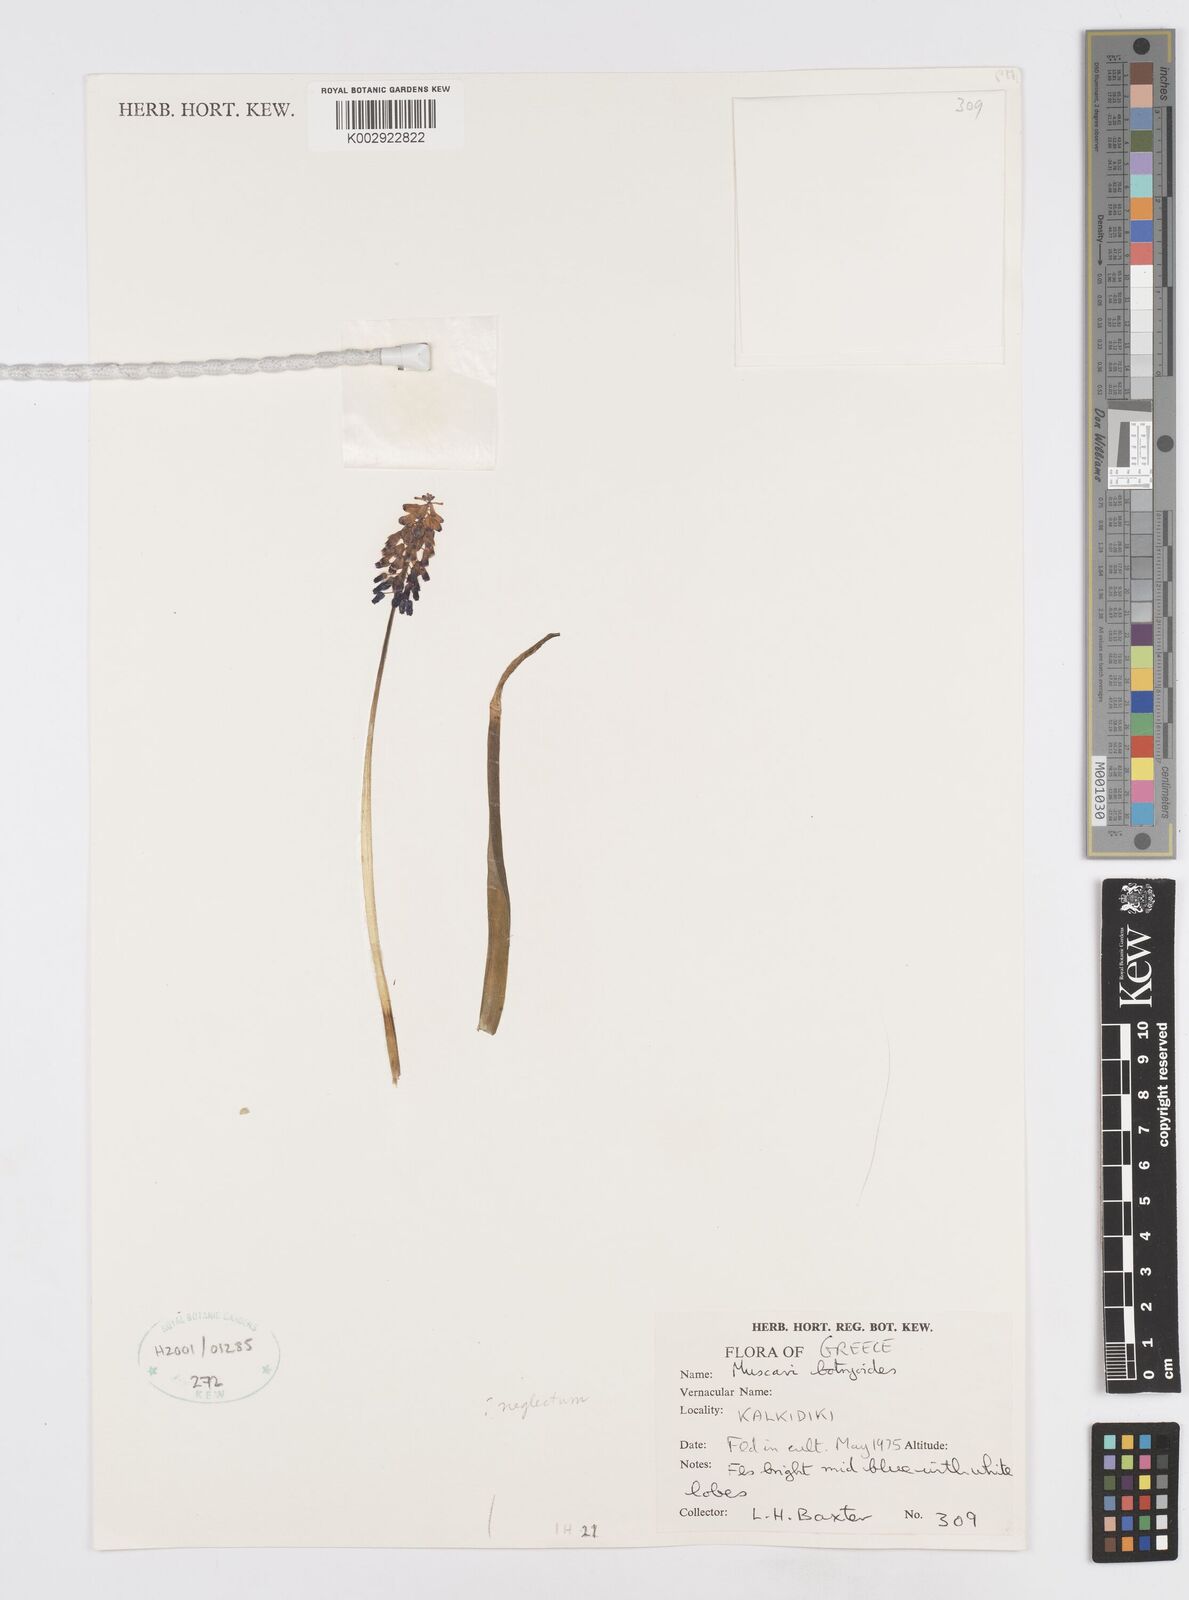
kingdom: Plantae
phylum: Tracheophyta
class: Liliopsida
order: Asparagales
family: Asparagaceae
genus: Muscari
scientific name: Muscari botryoides
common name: Compact grape-hyacinth
